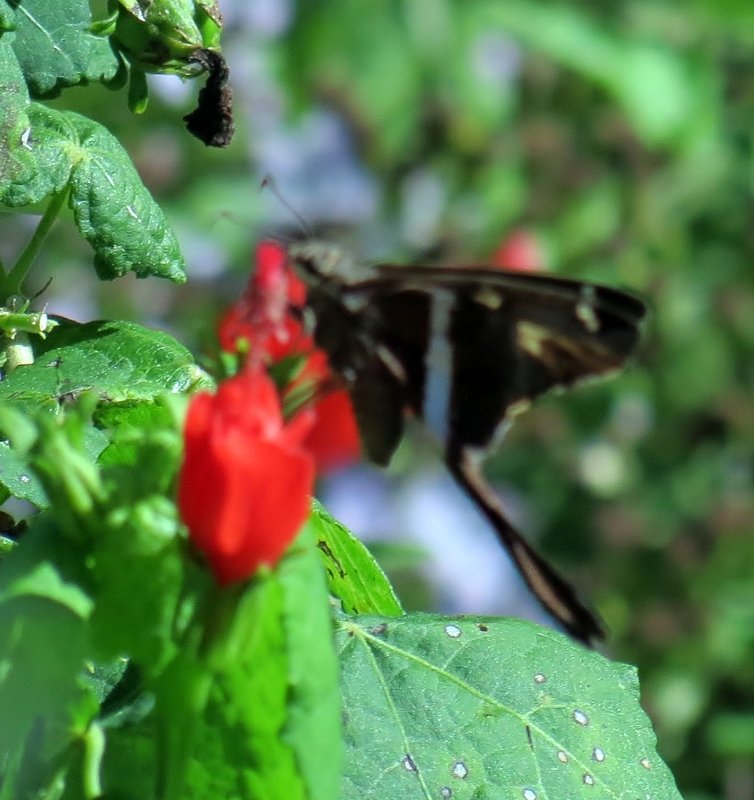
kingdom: Animalia
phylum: Arthropoda
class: Insecta
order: Lepidoptera
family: Hesperiidae
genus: Chioides
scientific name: Chioides catillus
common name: White-striped Longtail
